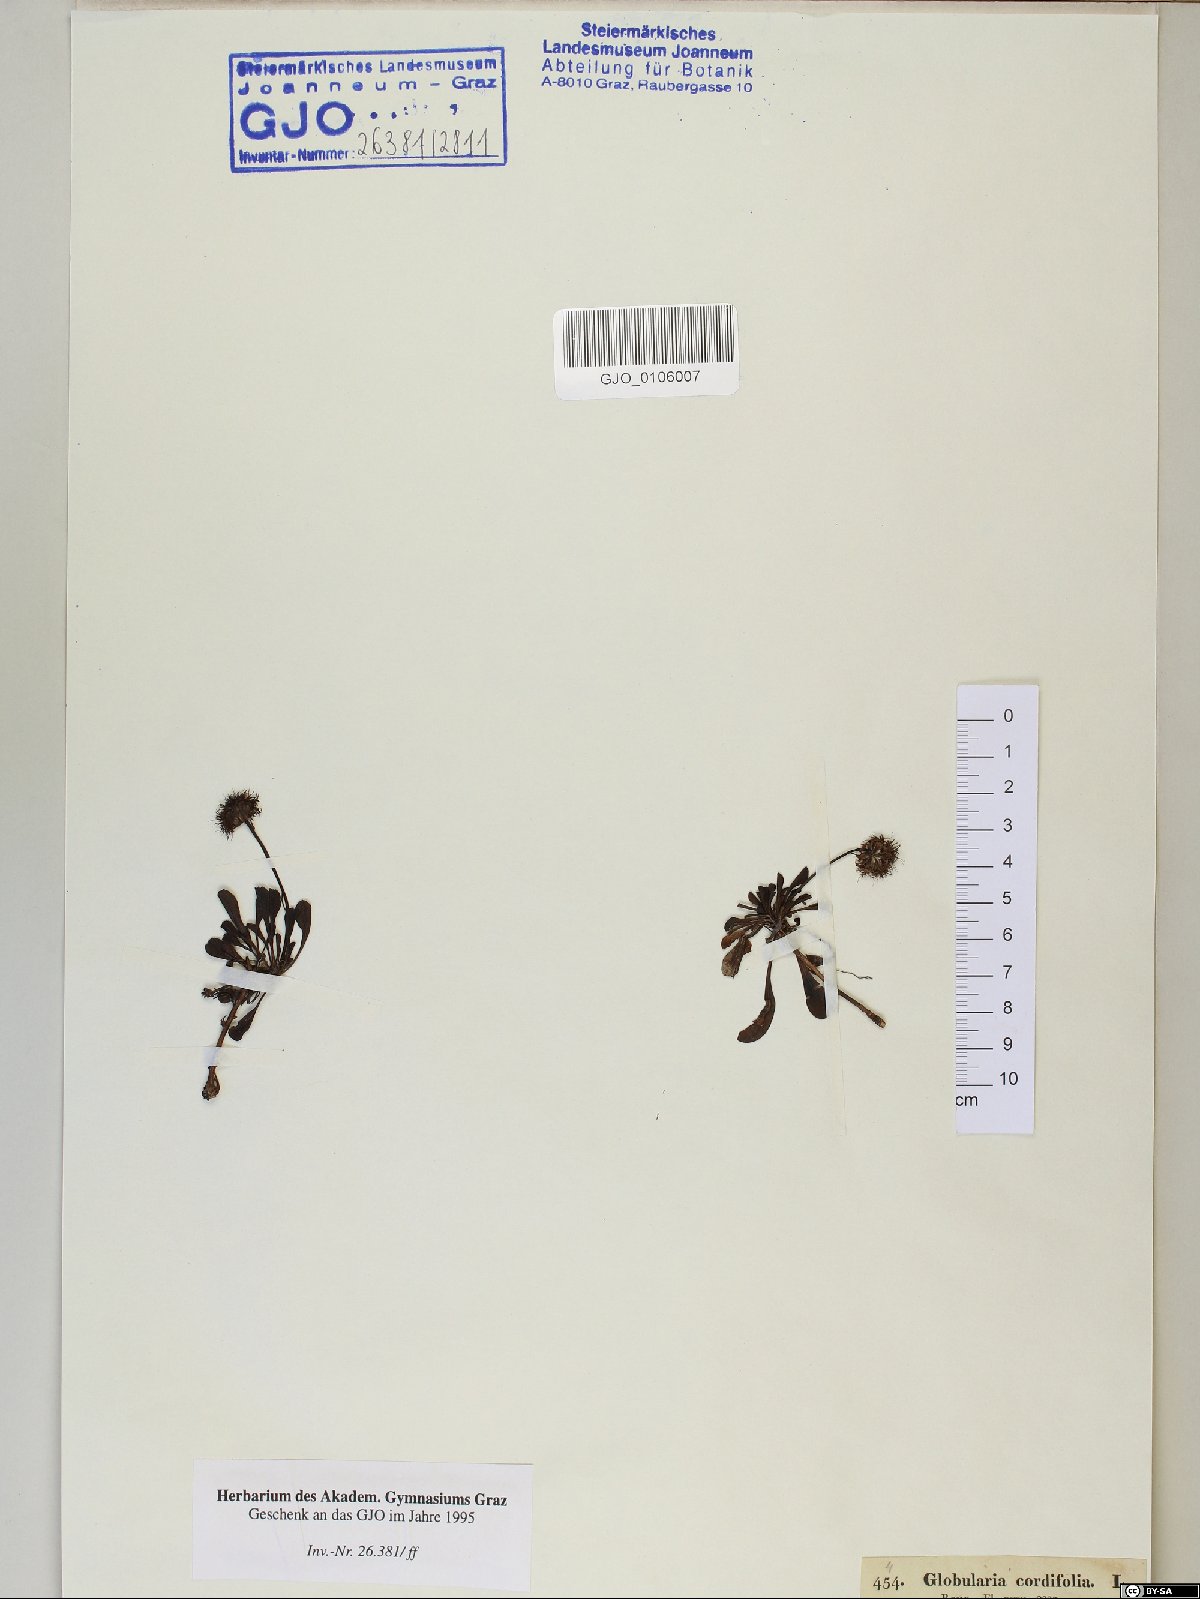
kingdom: Plantae
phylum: Tracheophyta
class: Magnoliopsida
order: Lamiales
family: Plantaginaceae
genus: Globularia
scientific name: Globularia cordifolia
